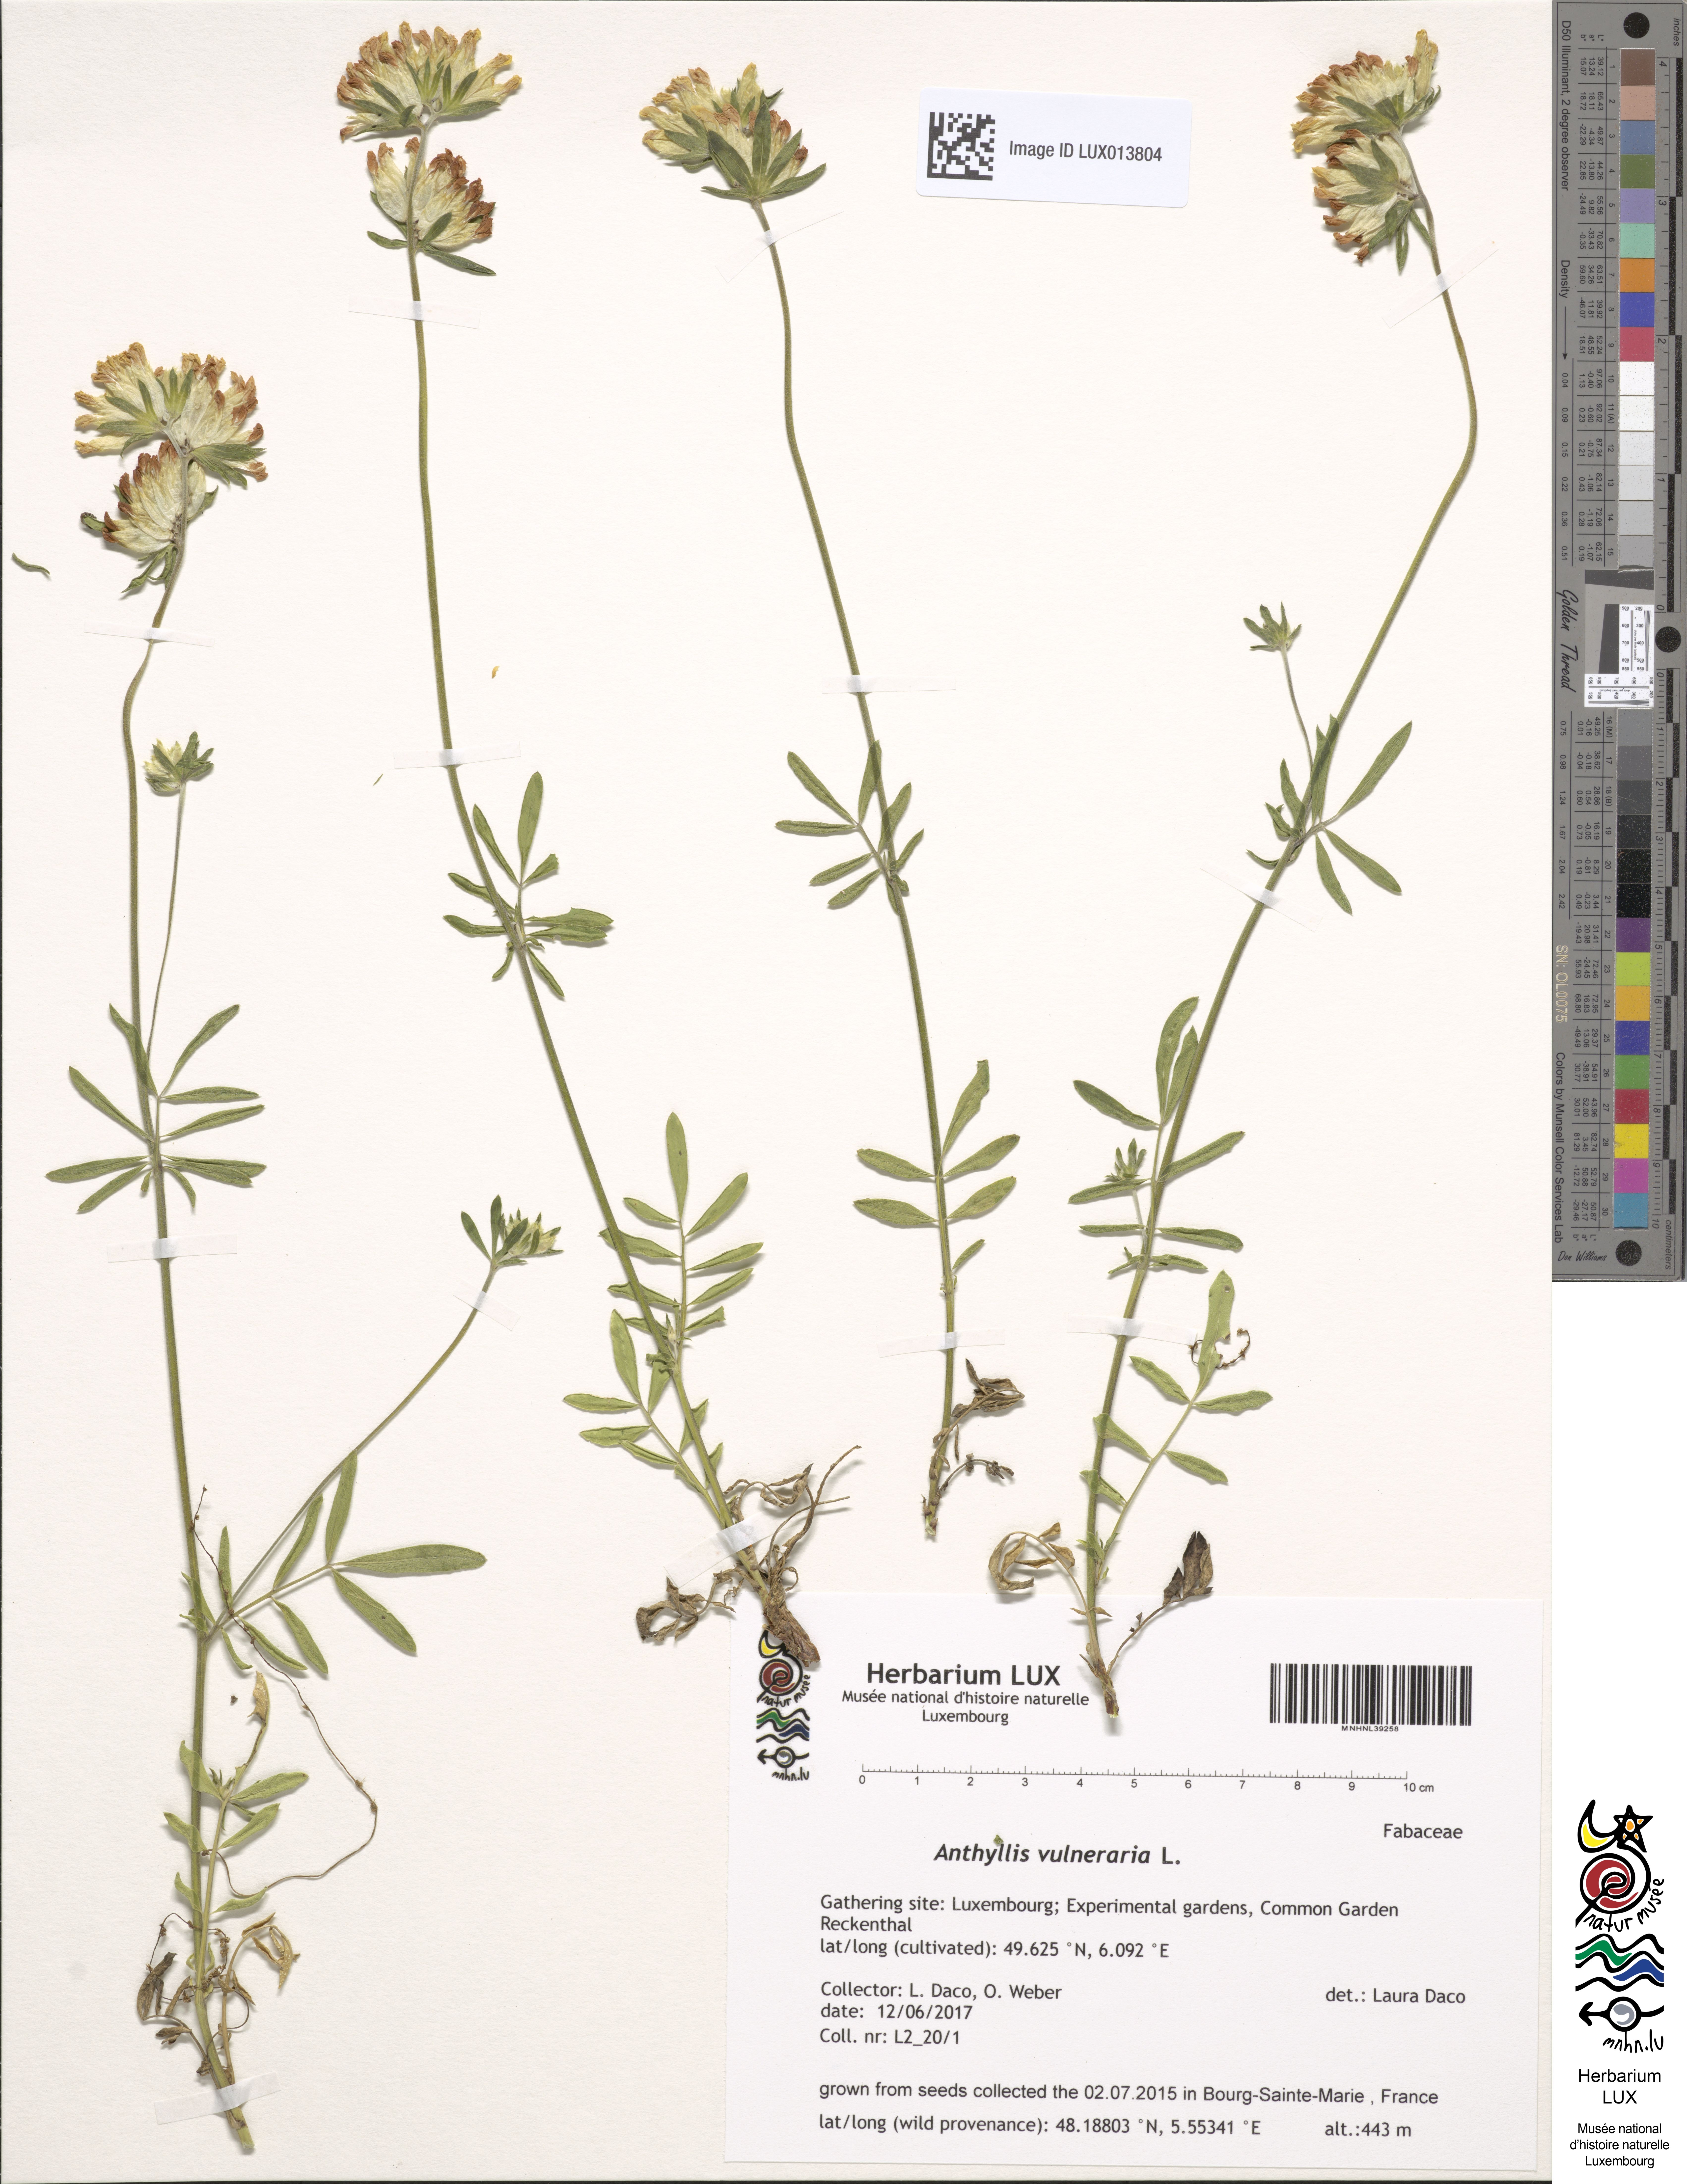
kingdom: Plantae
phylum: Tracheophyta
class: Magnoliopsida
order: Fabales
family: Fabaceae
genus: Anthyllis
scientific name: Anthyllis vulneraria
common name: Kidney vetch
